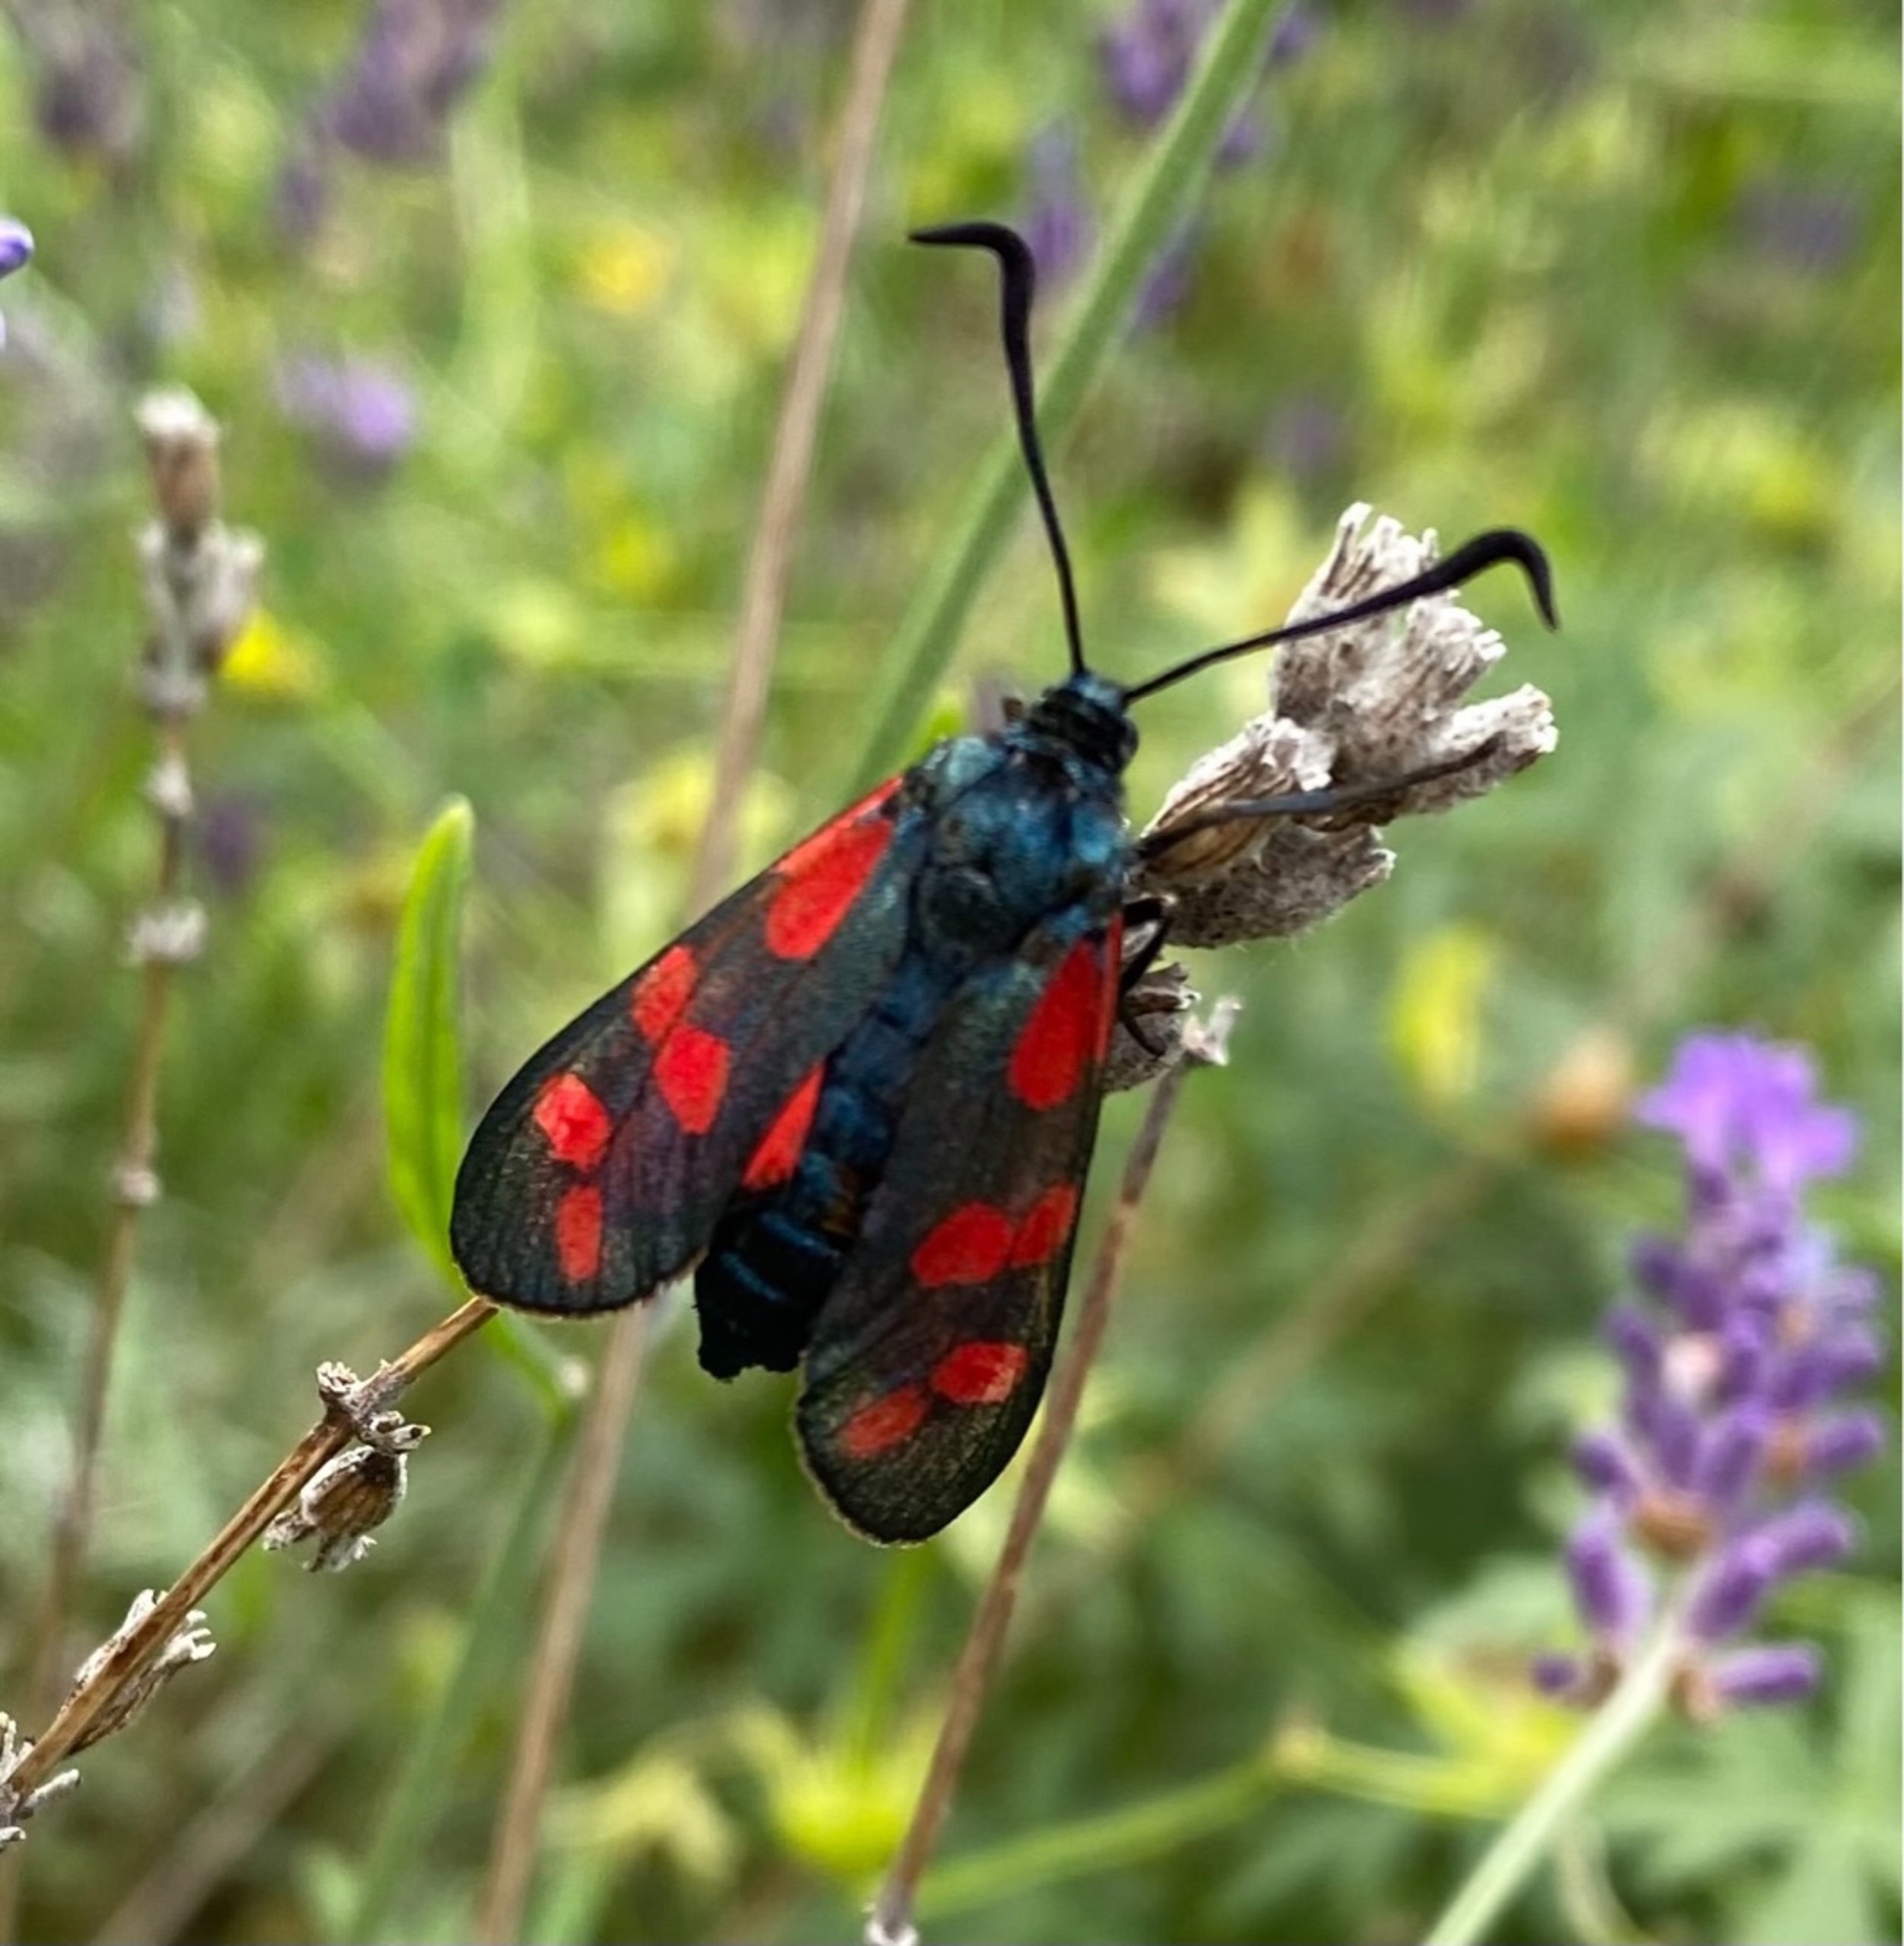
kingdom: Animalia
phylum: Arthropoda
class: Insecta
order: Lepidoptera
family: Zygaenidae
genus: Zygaena
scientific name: Zygaena filipendulae
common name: Seksplettet køllesværmer
